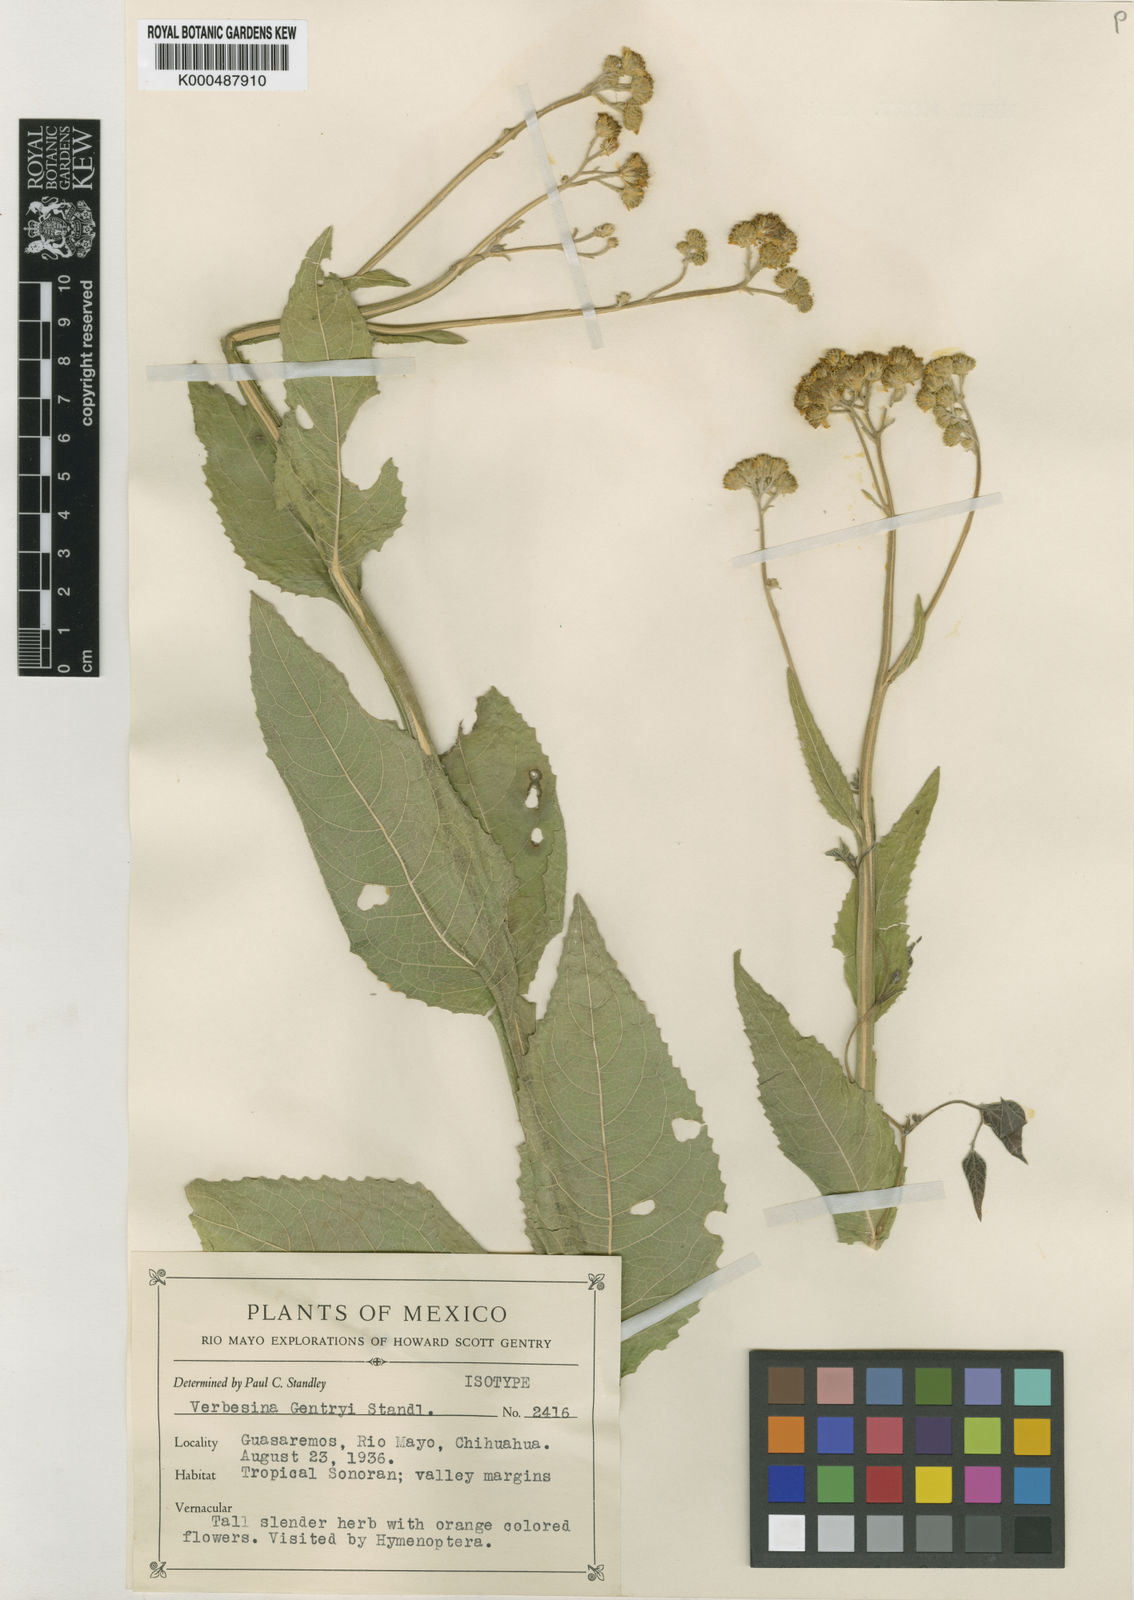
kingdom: Plantae
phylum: Tracheophyta
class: Magnoliopsida
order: Asterales
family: Asteraceae
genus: Verbesina
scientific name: Verbesina gentryi
